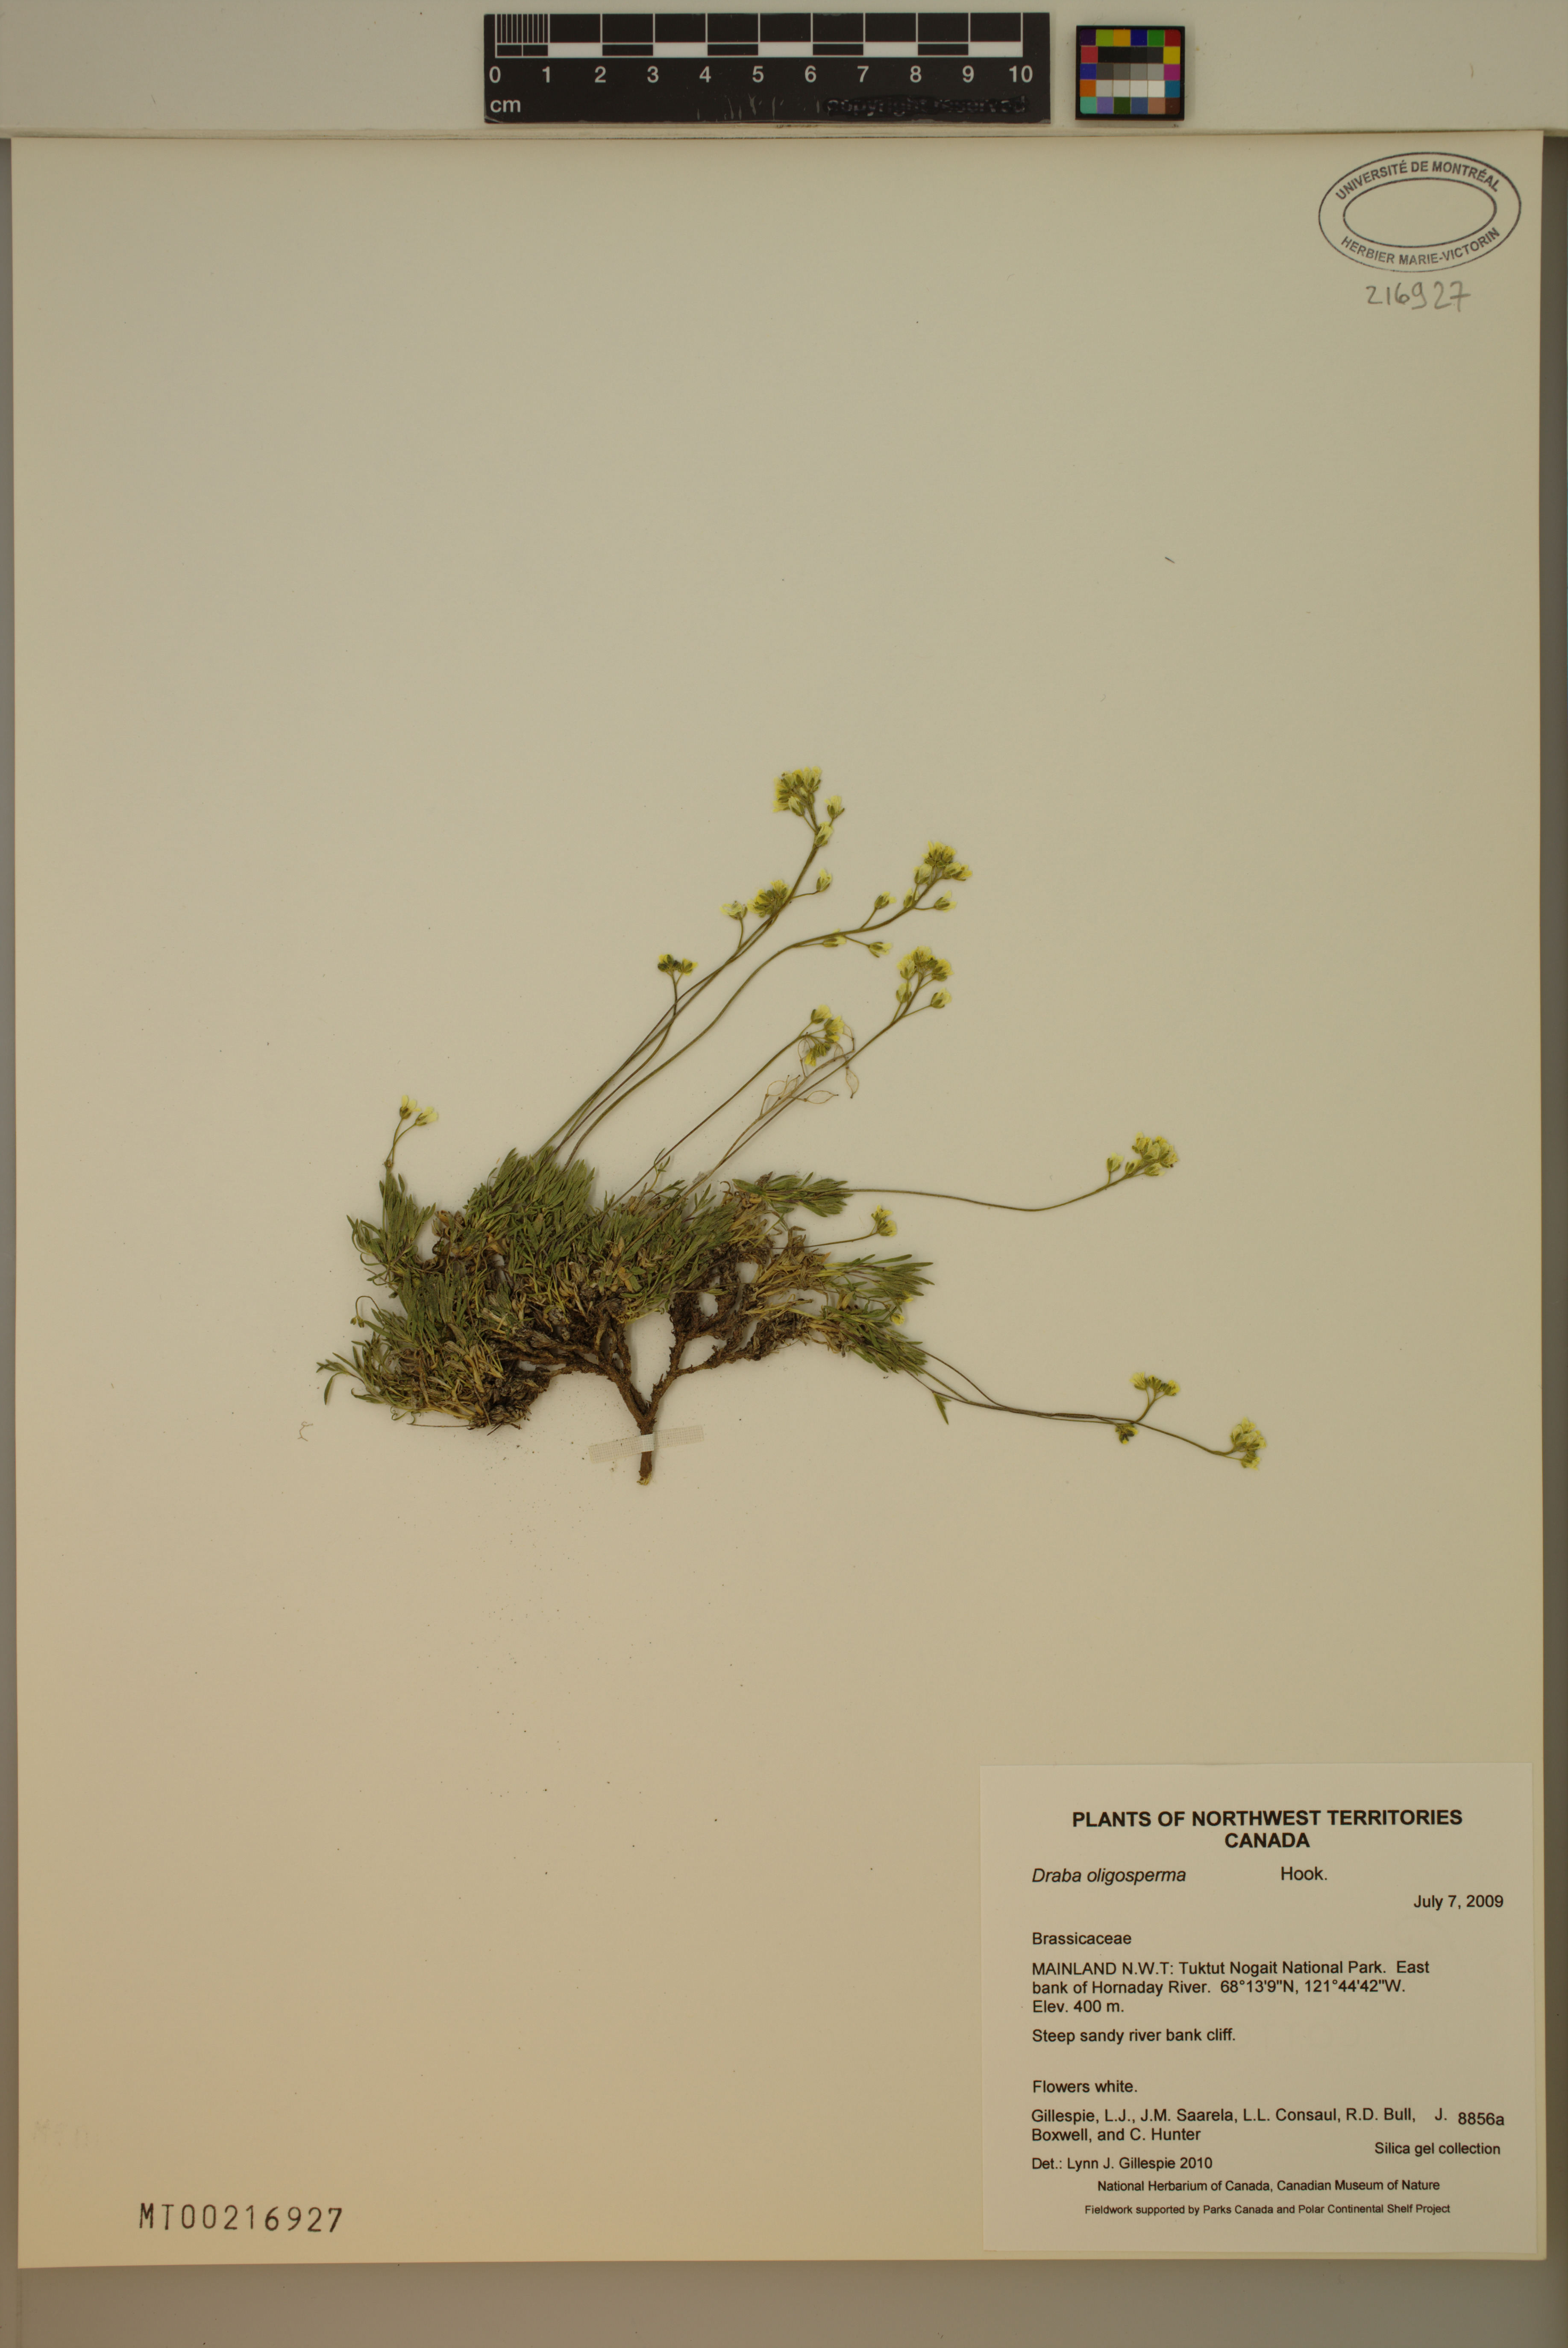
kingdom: Plantae
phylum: Tracheophyta
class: Magnoliopsida
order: Brassicales
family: Brassicaceae
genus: Draba
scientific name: Draba oligosperma
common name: Few-seed draba
